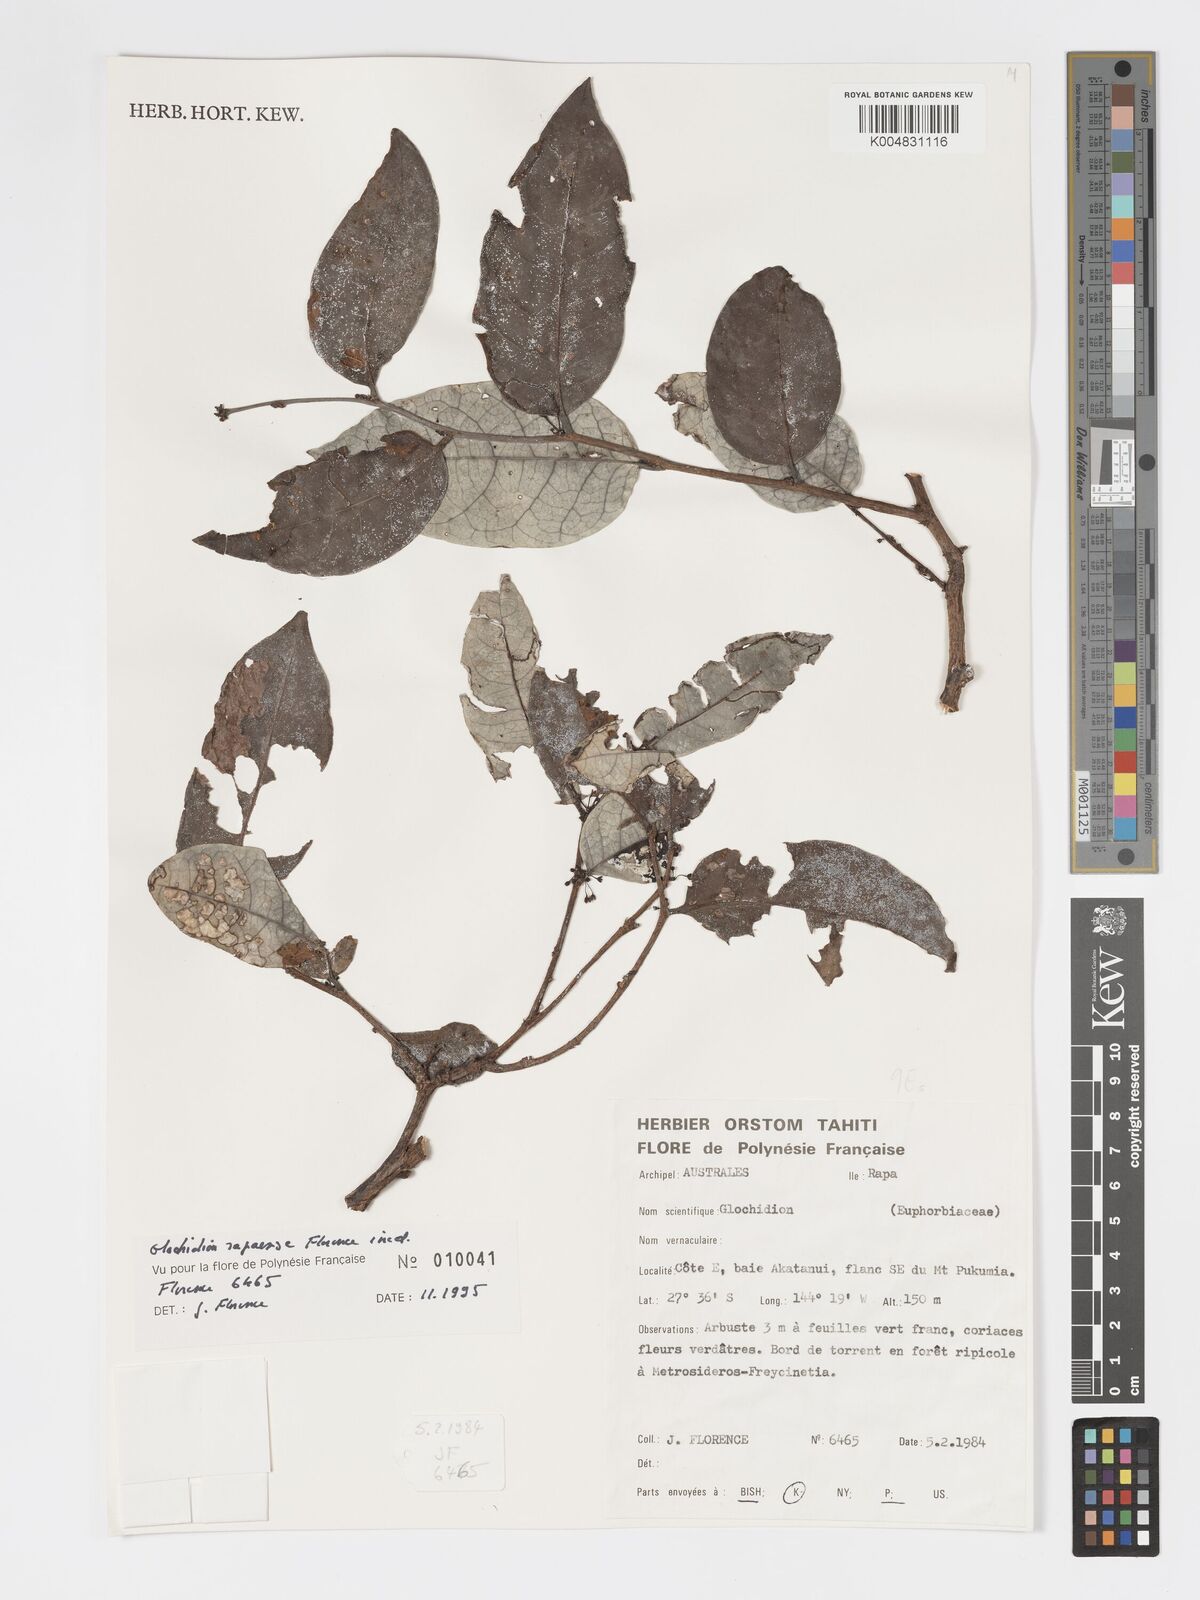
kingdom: Plantae
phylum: Tracheophyta
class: Magnoliopsida
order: Malpighiales
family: Phyllanthaceae
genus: Glochidion
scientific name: Glochidion rapaense
